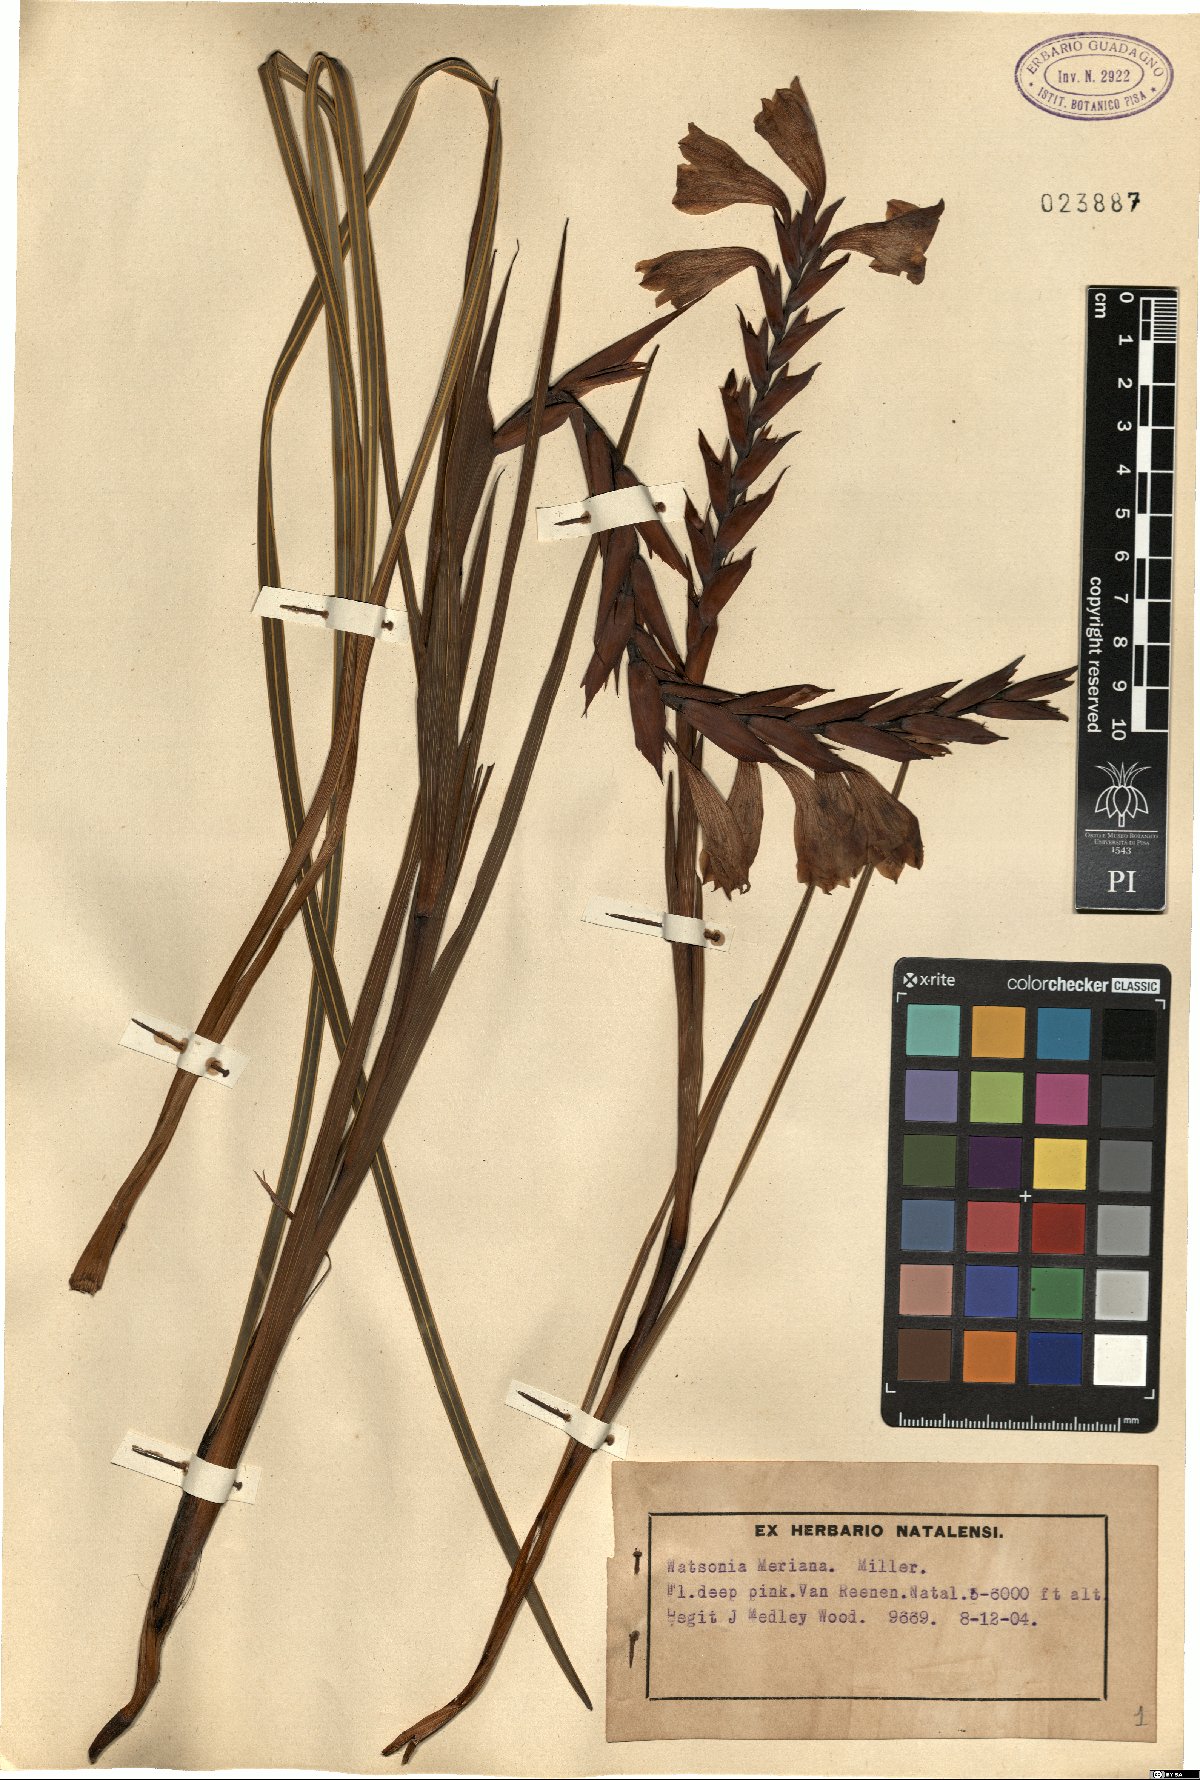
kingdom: Plantae
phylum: Tracheophyta
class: Liliopsida
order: Asparagales
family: Iridaceae
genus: Watsonia
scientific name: Watsonia meriana
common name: Bulbil bugle-lily
